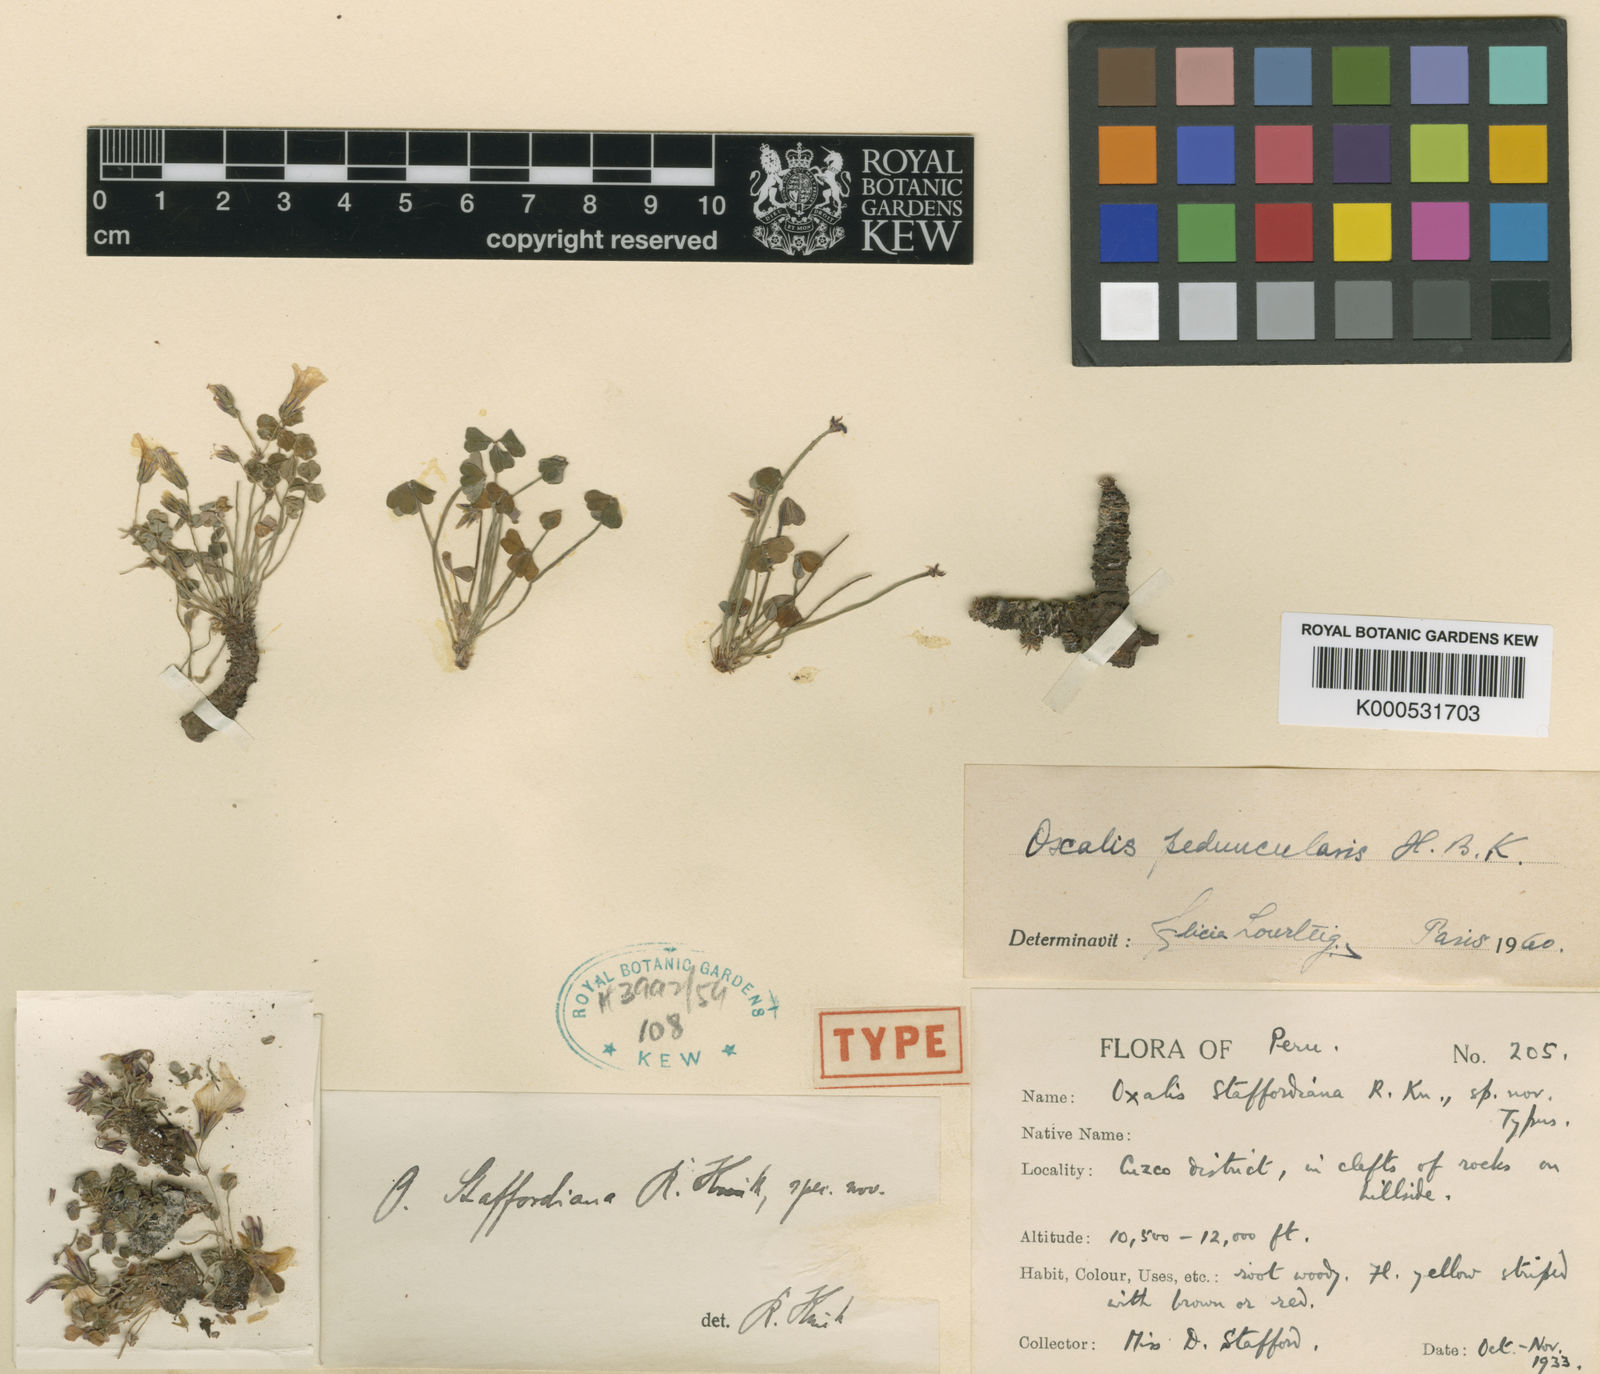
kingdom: Plantae
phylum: Tracheophyta
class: Magnoliopsida
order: Oxalidales
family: Oxalidaceae
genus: Oxalis
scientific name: Oxalis peduncularis
